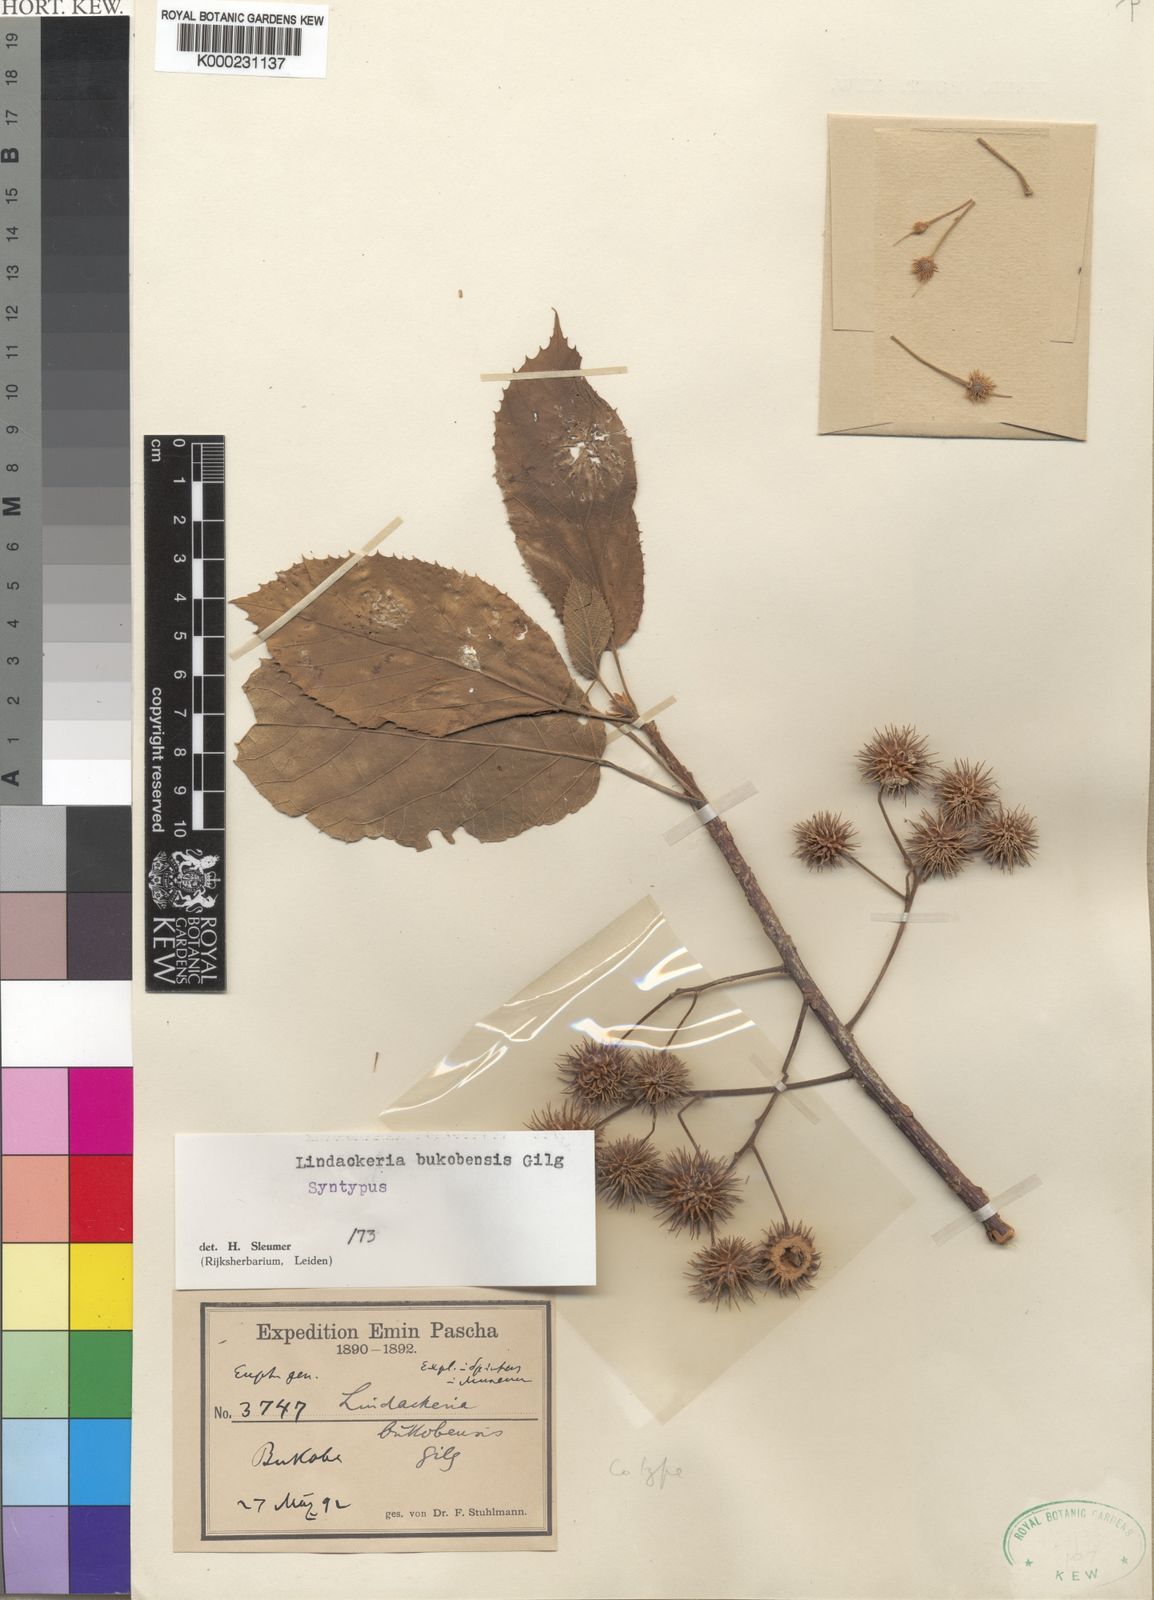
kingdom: Plantae
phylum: Tracheophyta
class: Magnoliopsida
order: Malpighiales
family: Achariaceae
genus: Lindackeria
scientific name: Lindackeria bukobensis
